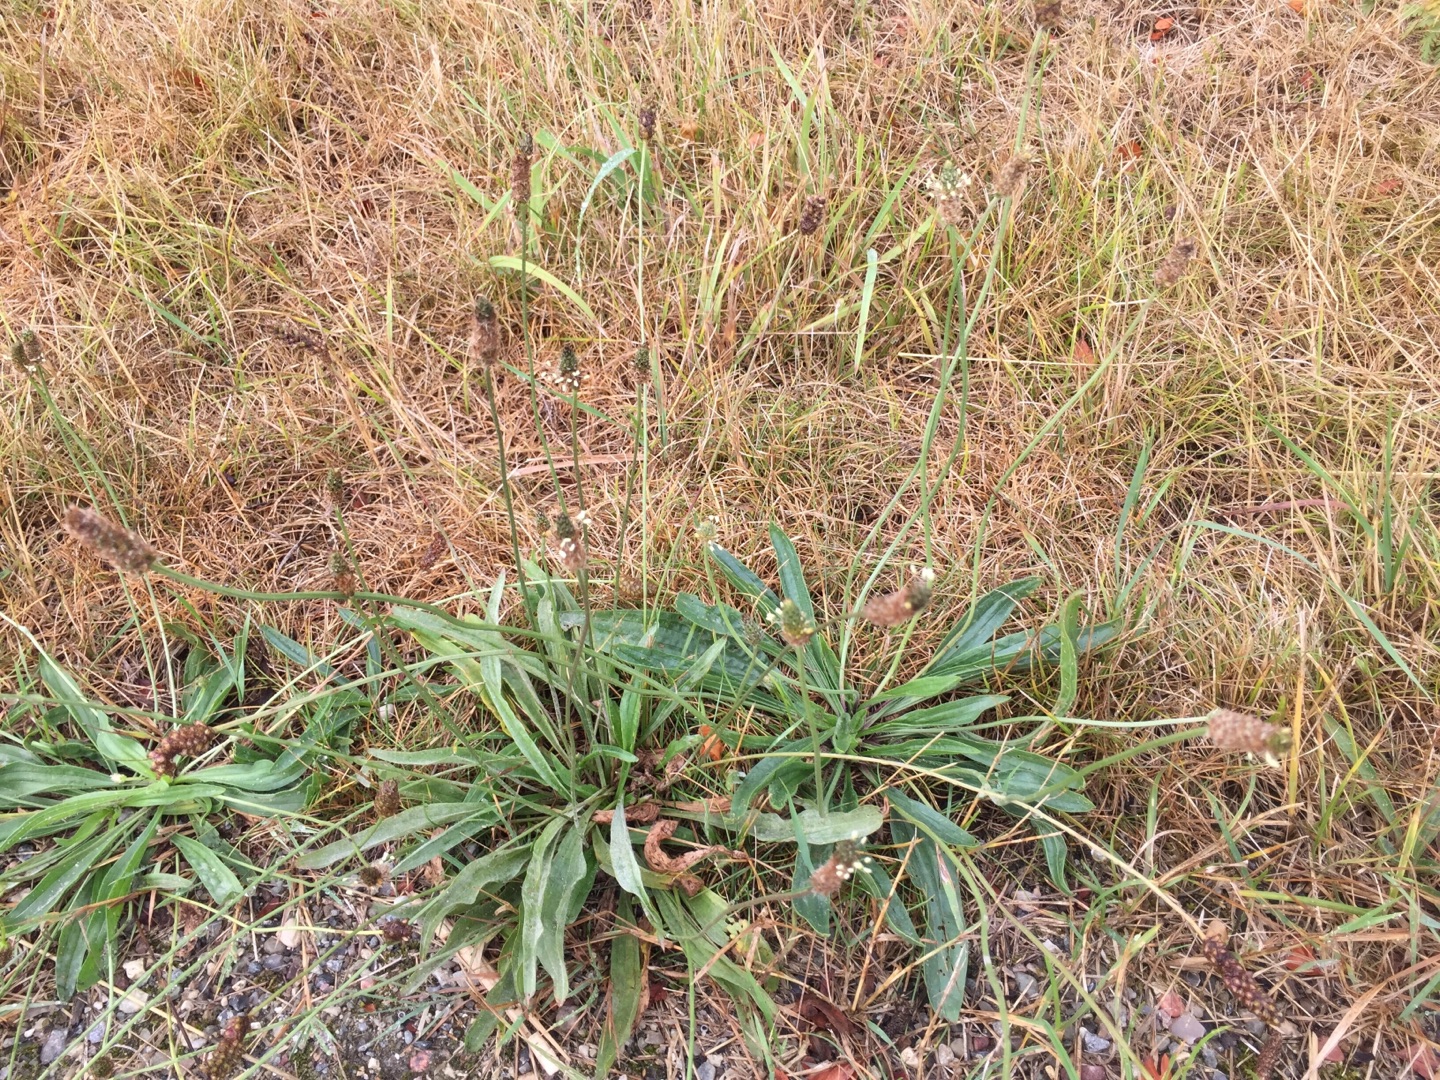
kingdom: Plantae
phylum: Tracheophyta
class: Magnoliopsida
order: Lamiales
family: Plantaginaceae
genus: Plantago
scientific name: Plantago lanceolata
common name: Lancet-vejbred
